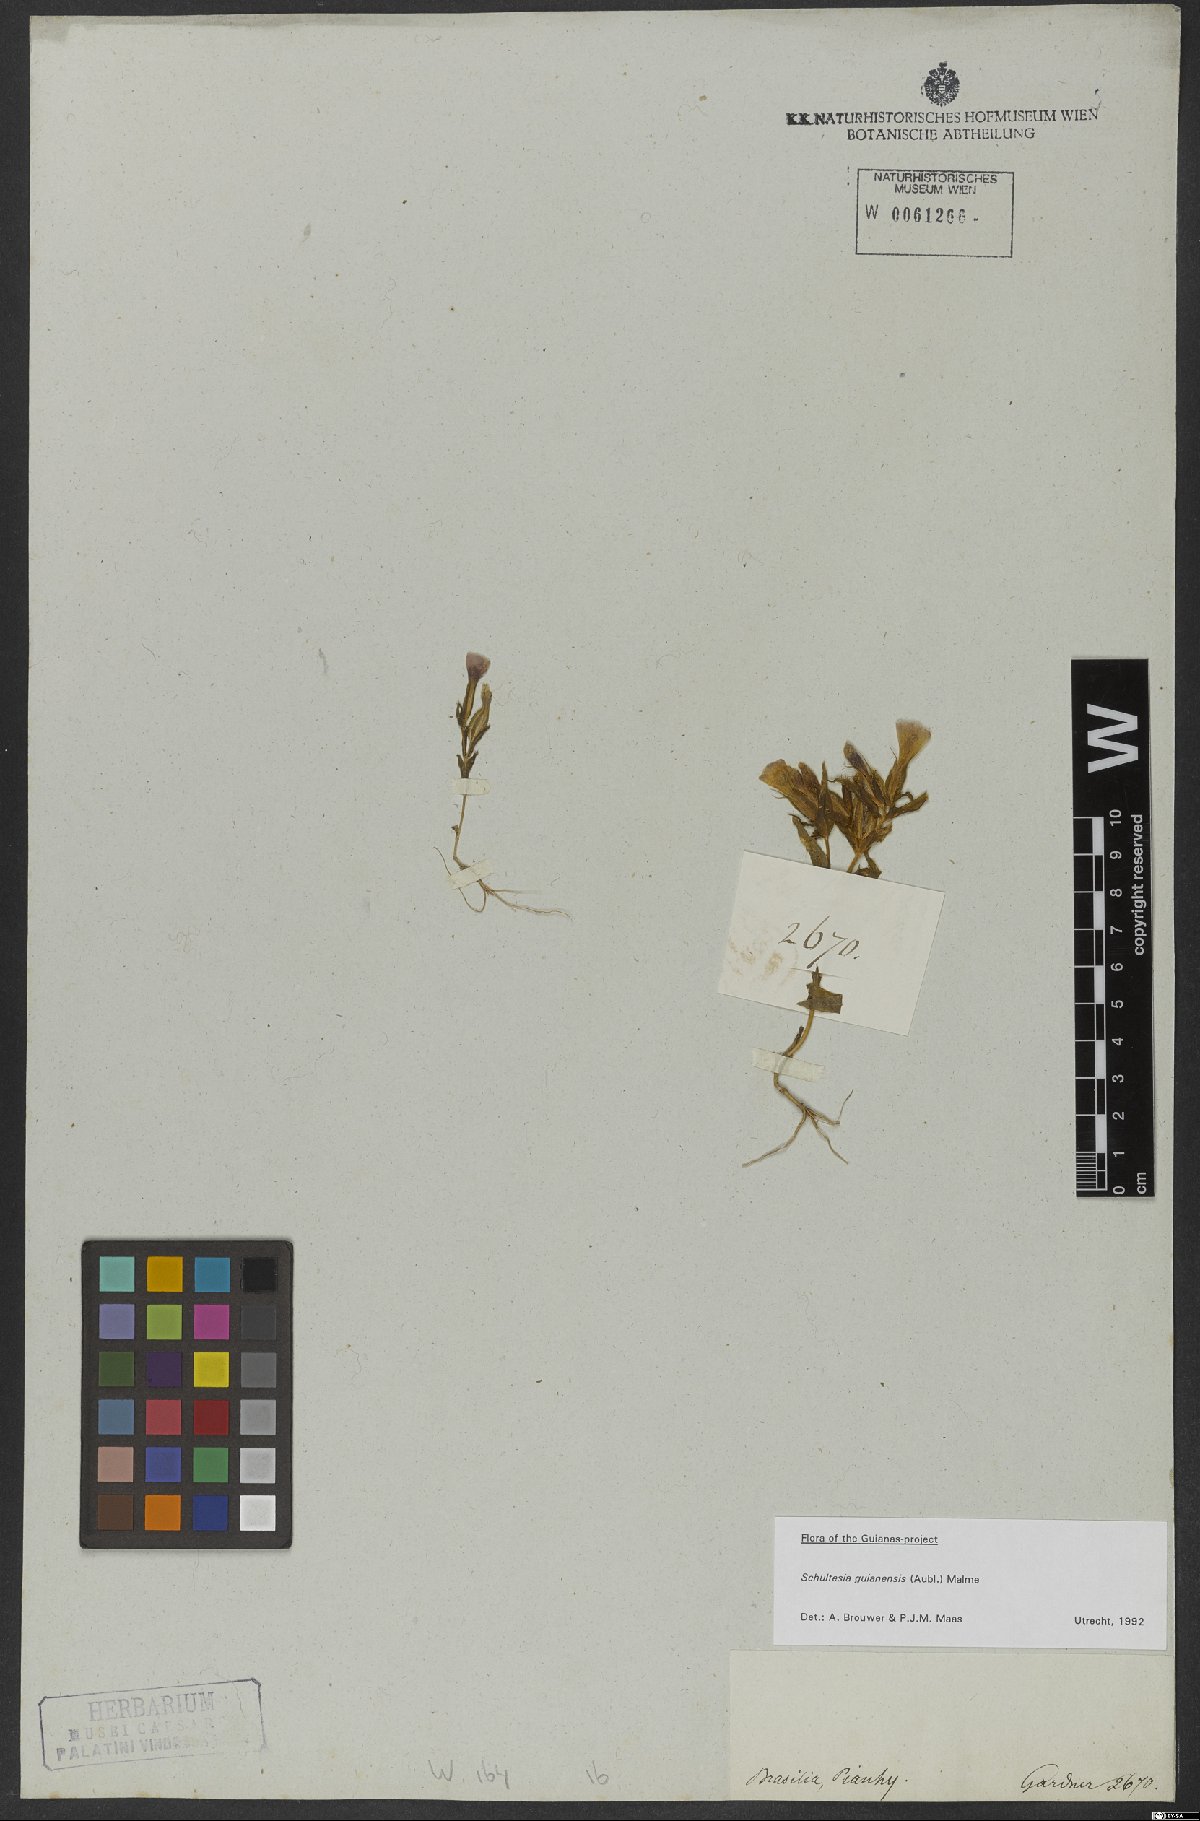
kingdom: Plantae
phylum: Tracheophyta
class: Magnoliopsida
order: Gentianales
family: Gentianaceae
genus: Schultesia
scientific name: Schultesia guianensis
